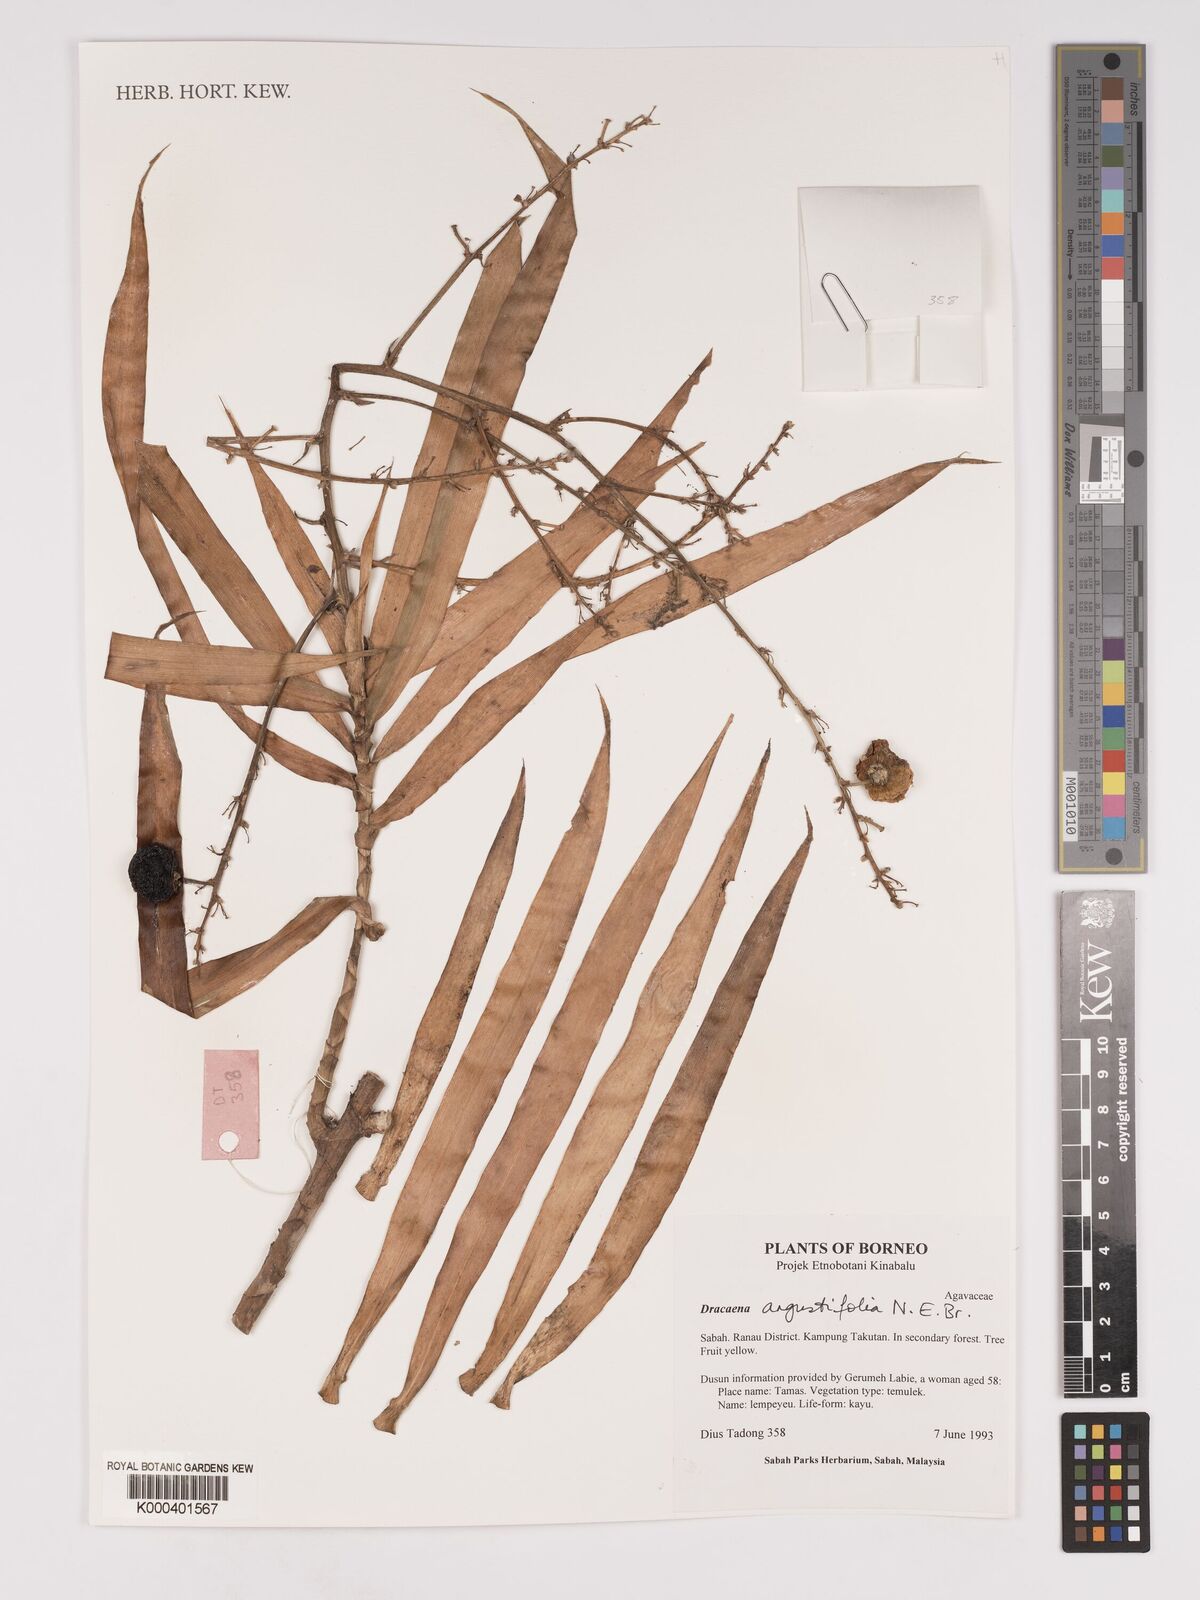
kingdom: Plantae
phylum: Tracheophyta
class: Liliopsida
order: Asparagales
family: Asparagaceae
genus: Dracaena
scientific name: Dracaena angustifolia
